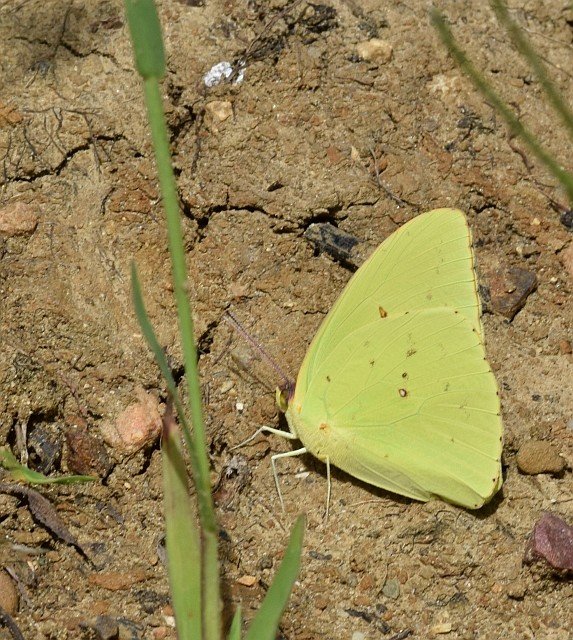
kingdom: Animalia
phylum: Arthropoda
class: Insecta
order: Lepidoptera
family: Pieridae
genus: Phoebis
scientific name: Phoebis sennae
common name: Cloudless Sulphur
